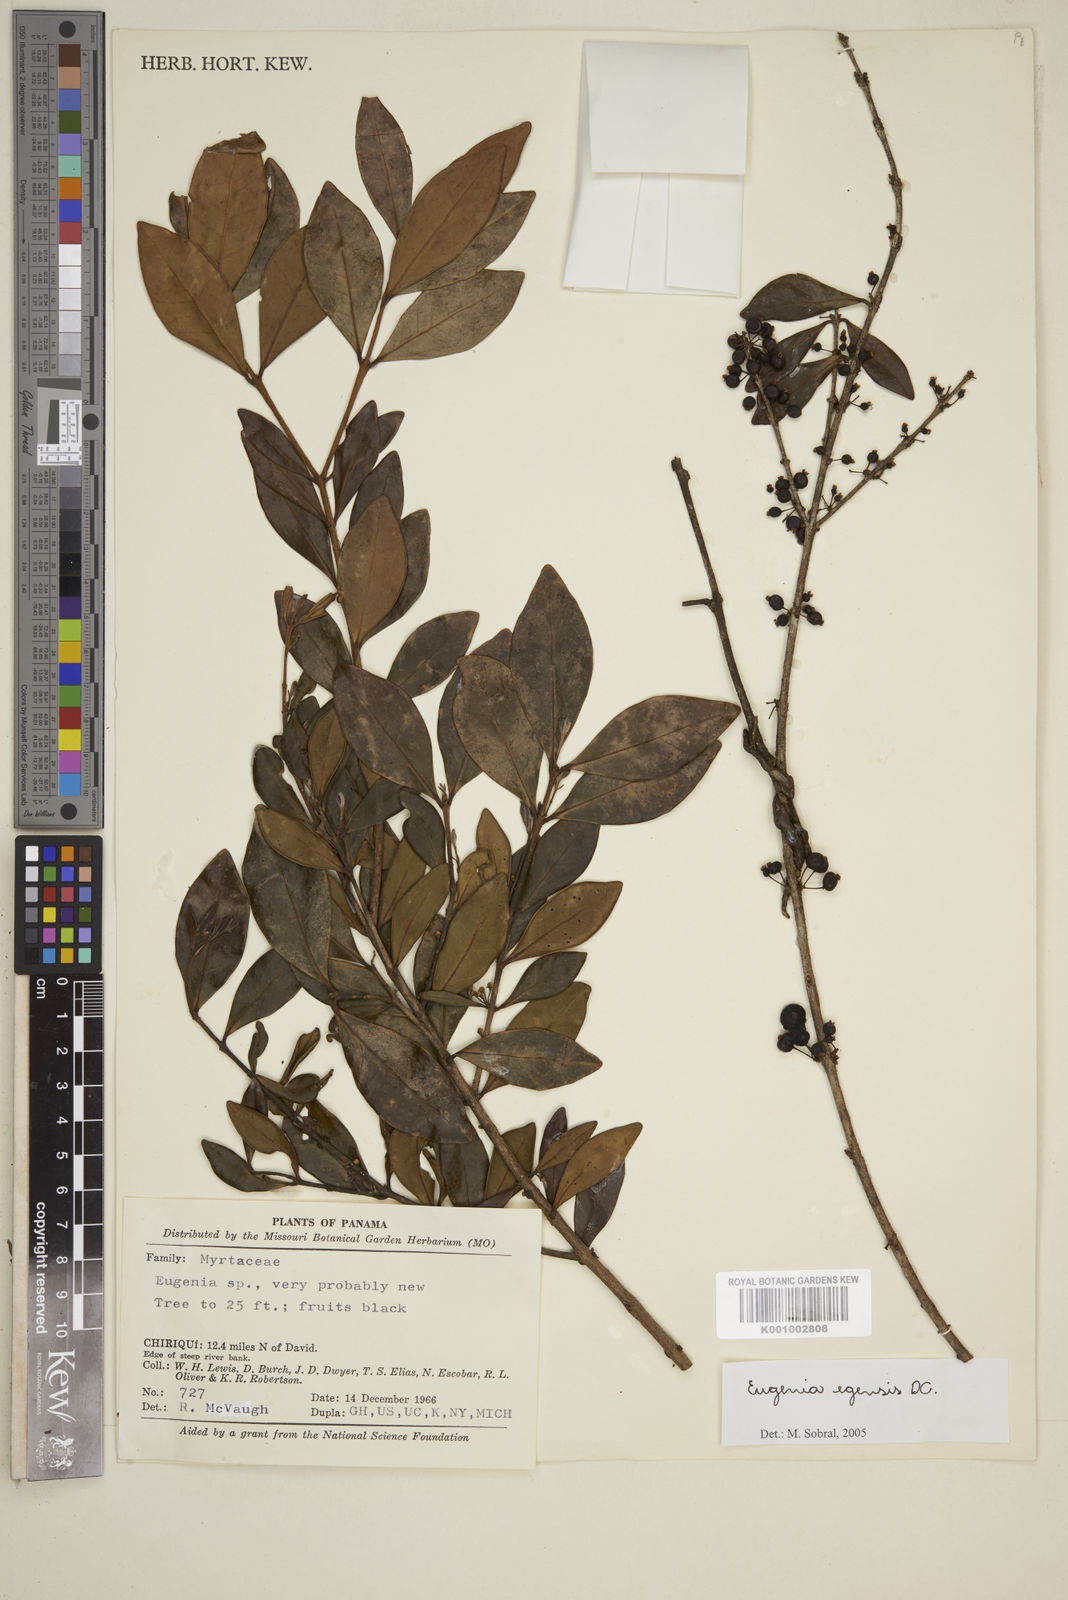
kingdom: Plantae
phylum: Tracheophyta
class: Magnoliopsida
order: Myrtales
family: Myrtaceae
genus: Eugenia
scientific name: Eugenia egensis
